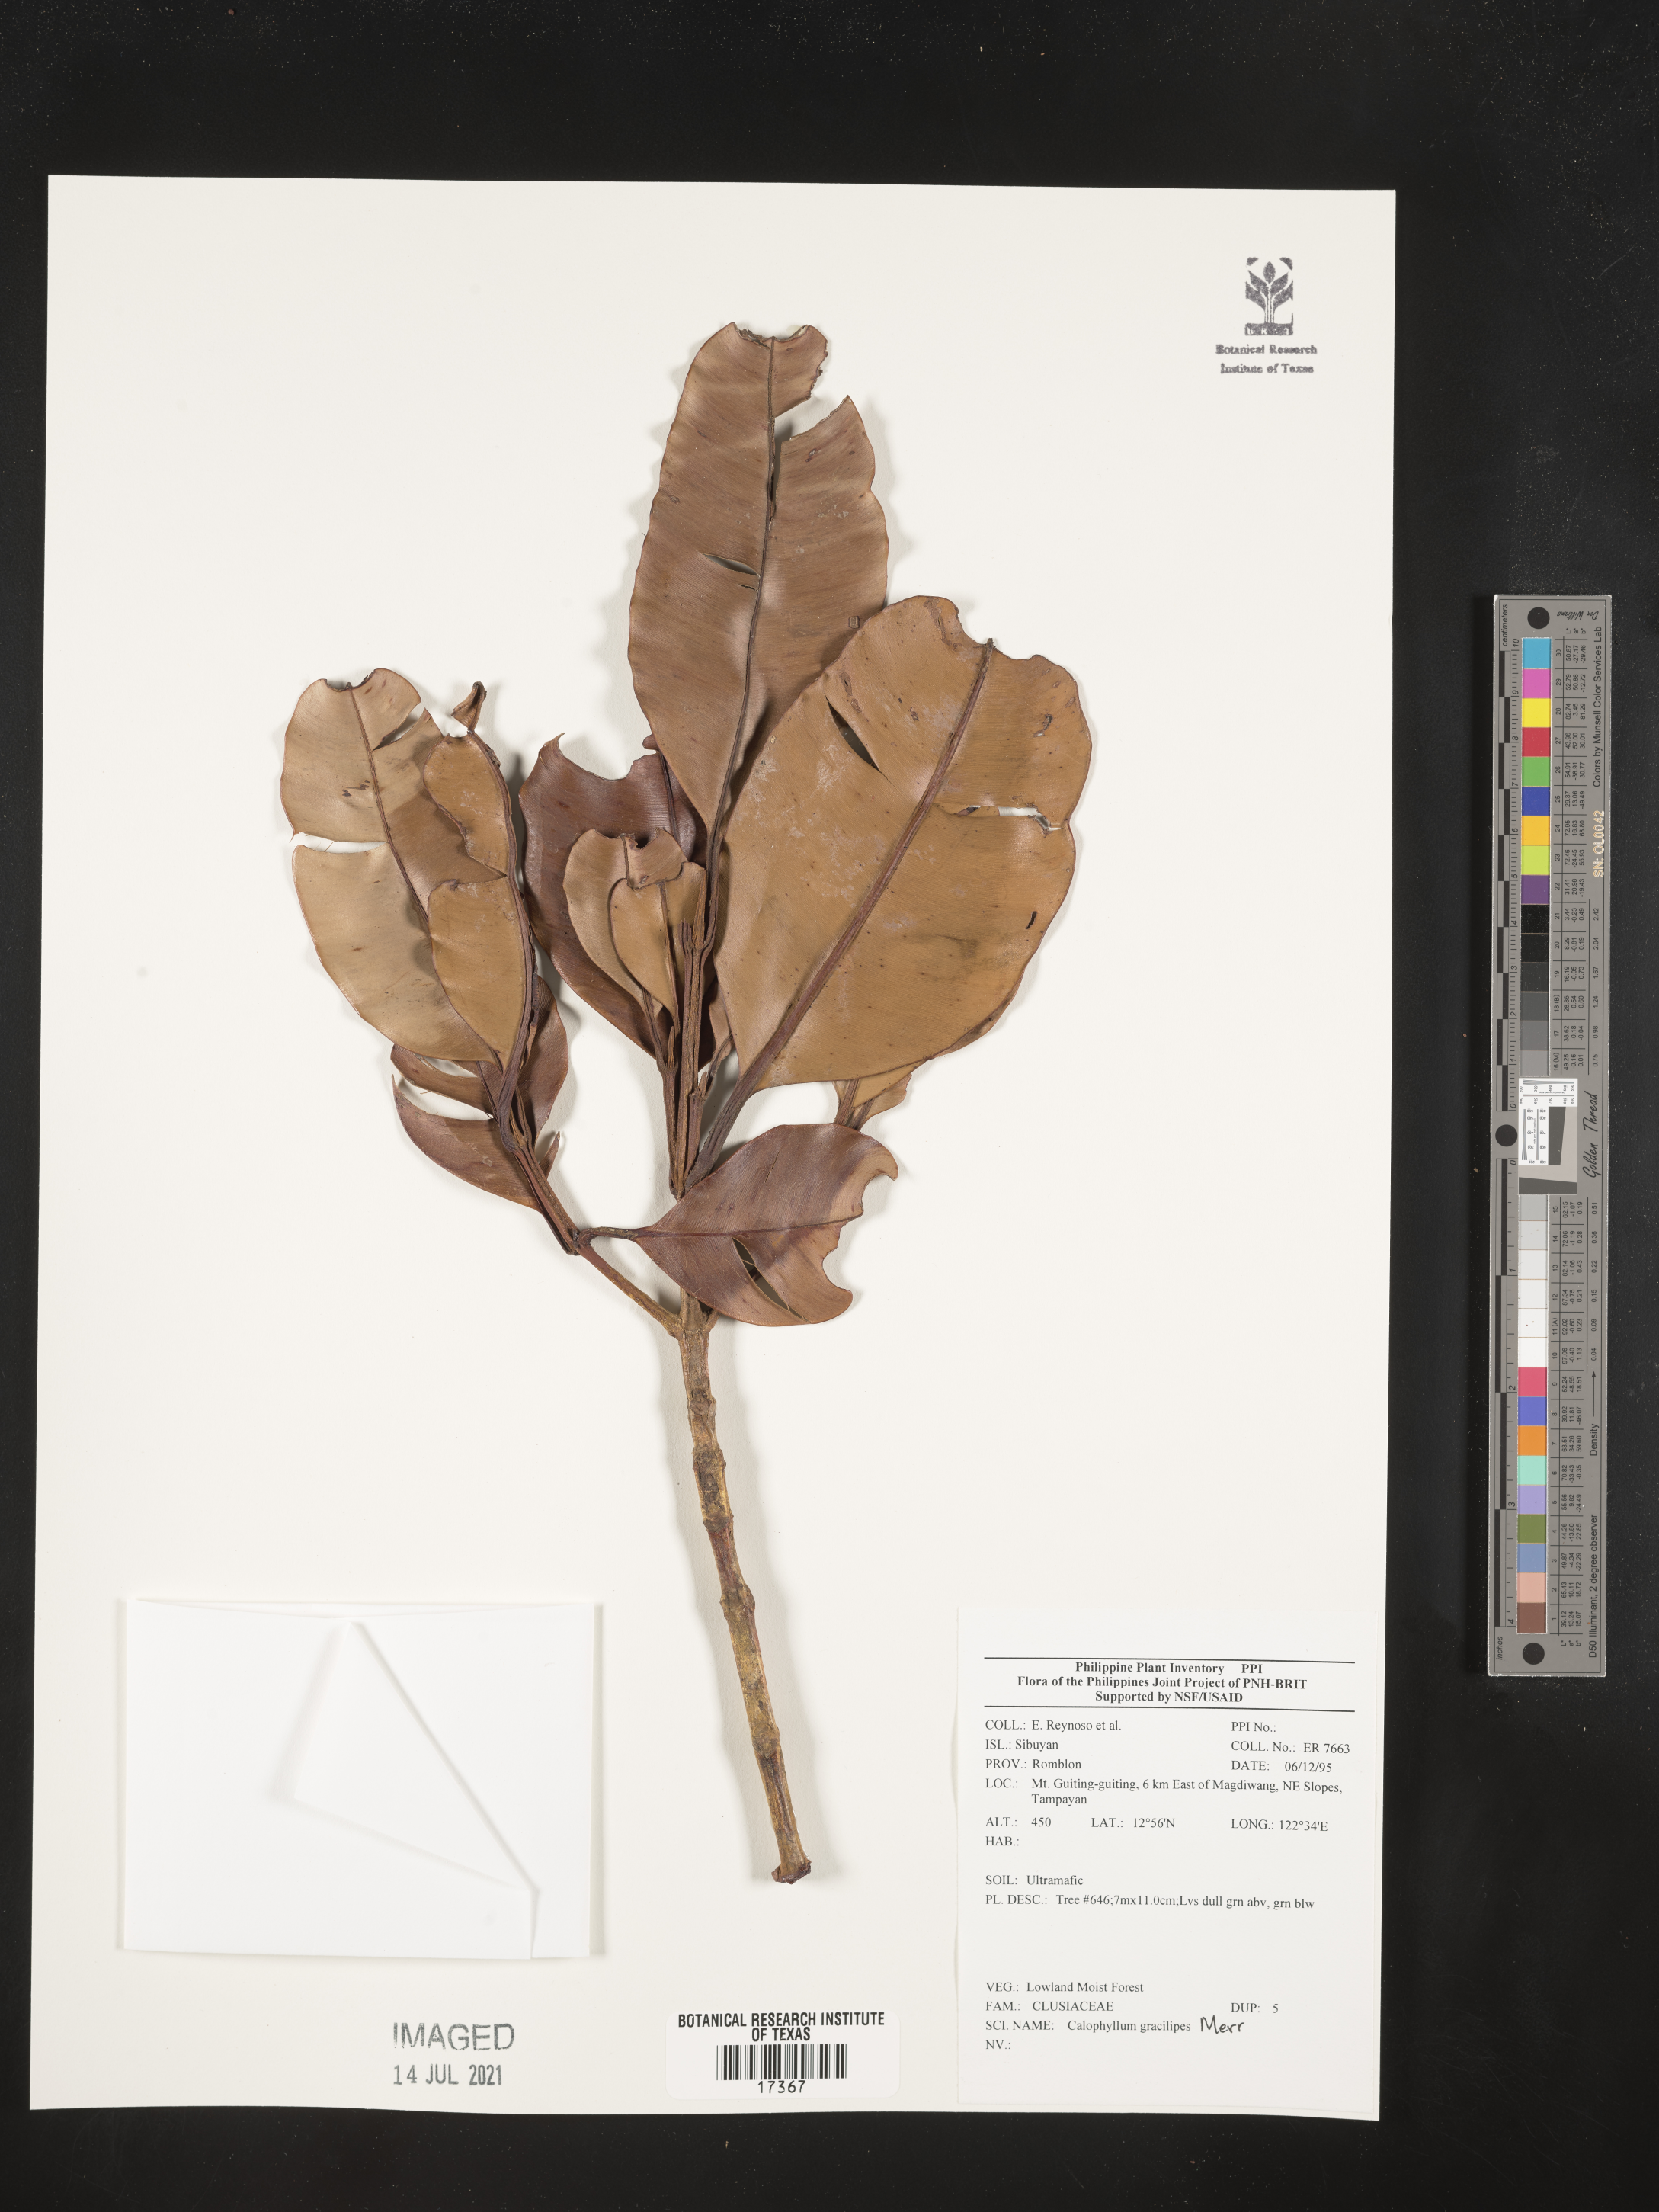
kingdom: Plantae
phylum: Tracheophyta
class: Magnoliopsida
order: Malpighiales
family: Calophyllaceae
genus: Calophyllum
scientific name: Calophyllum gracilipes
